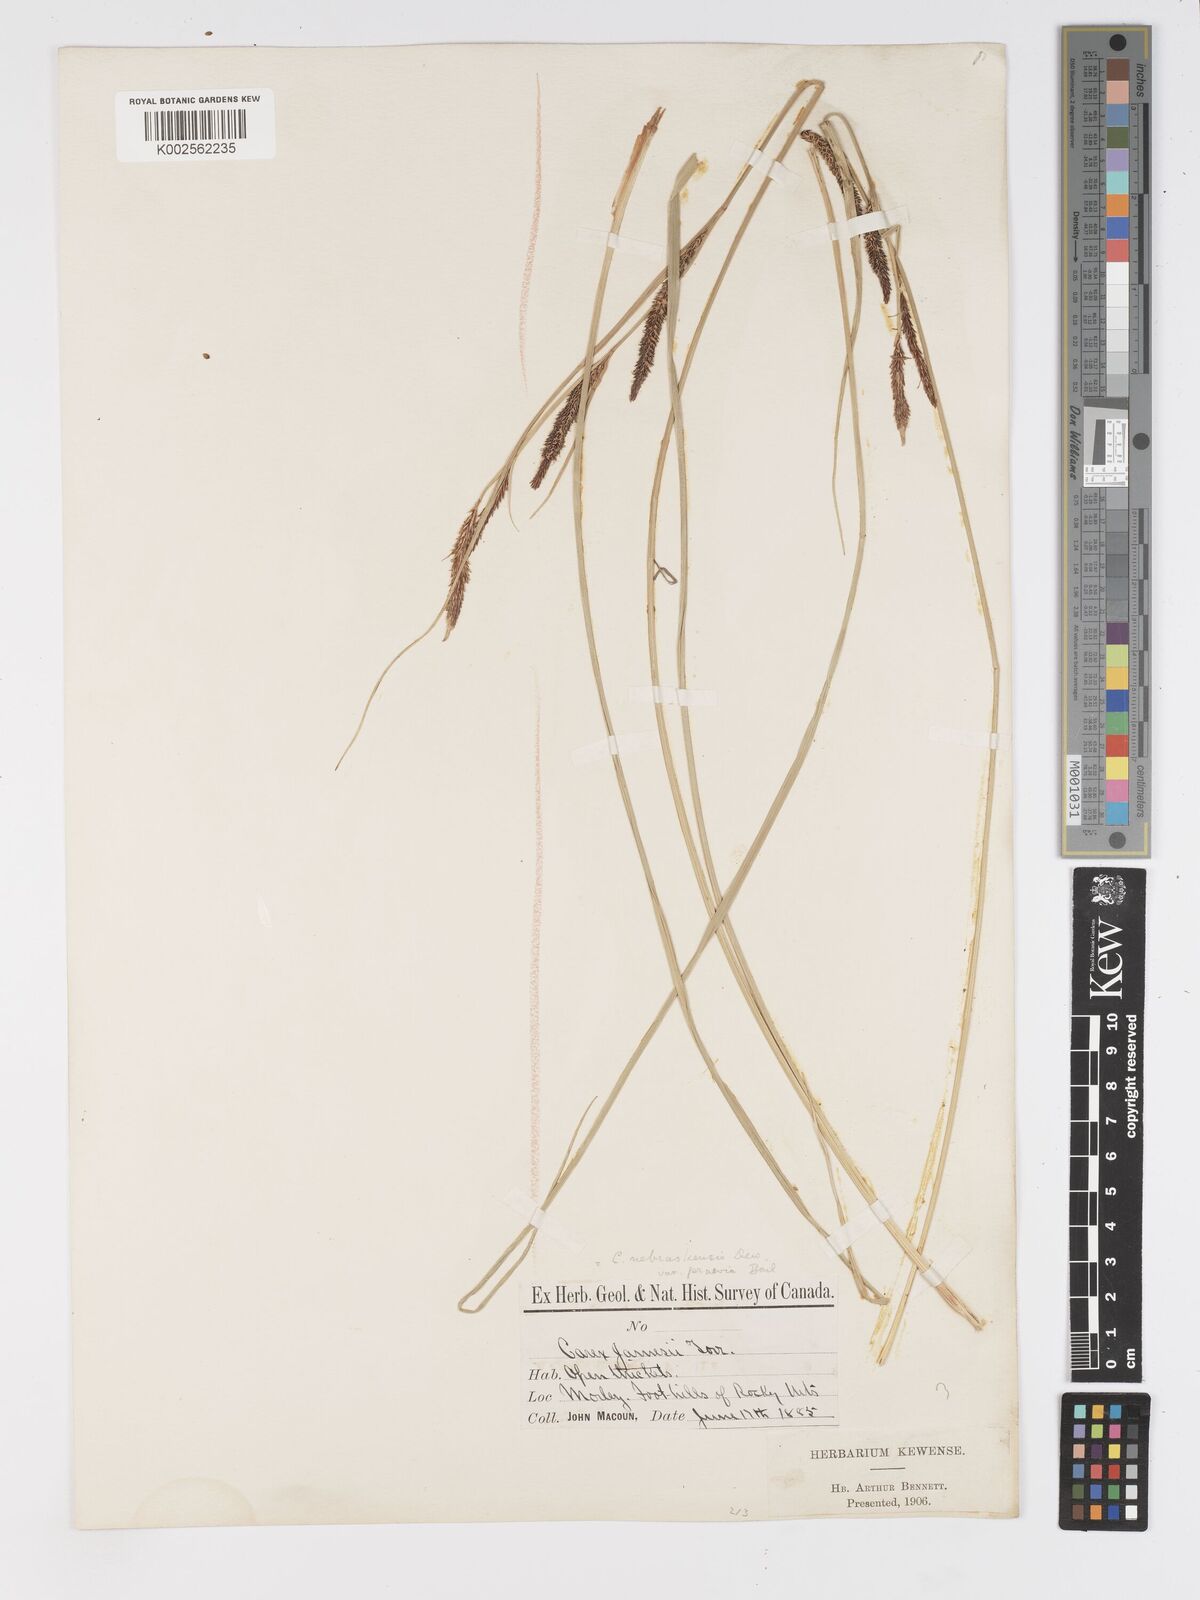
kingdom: Plantae
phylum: Tracheophyta
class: Liliopsida
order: Poales
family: Cyperaceae
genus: Carex
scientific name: Carex nebrascensis
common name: Nebraska sedge
